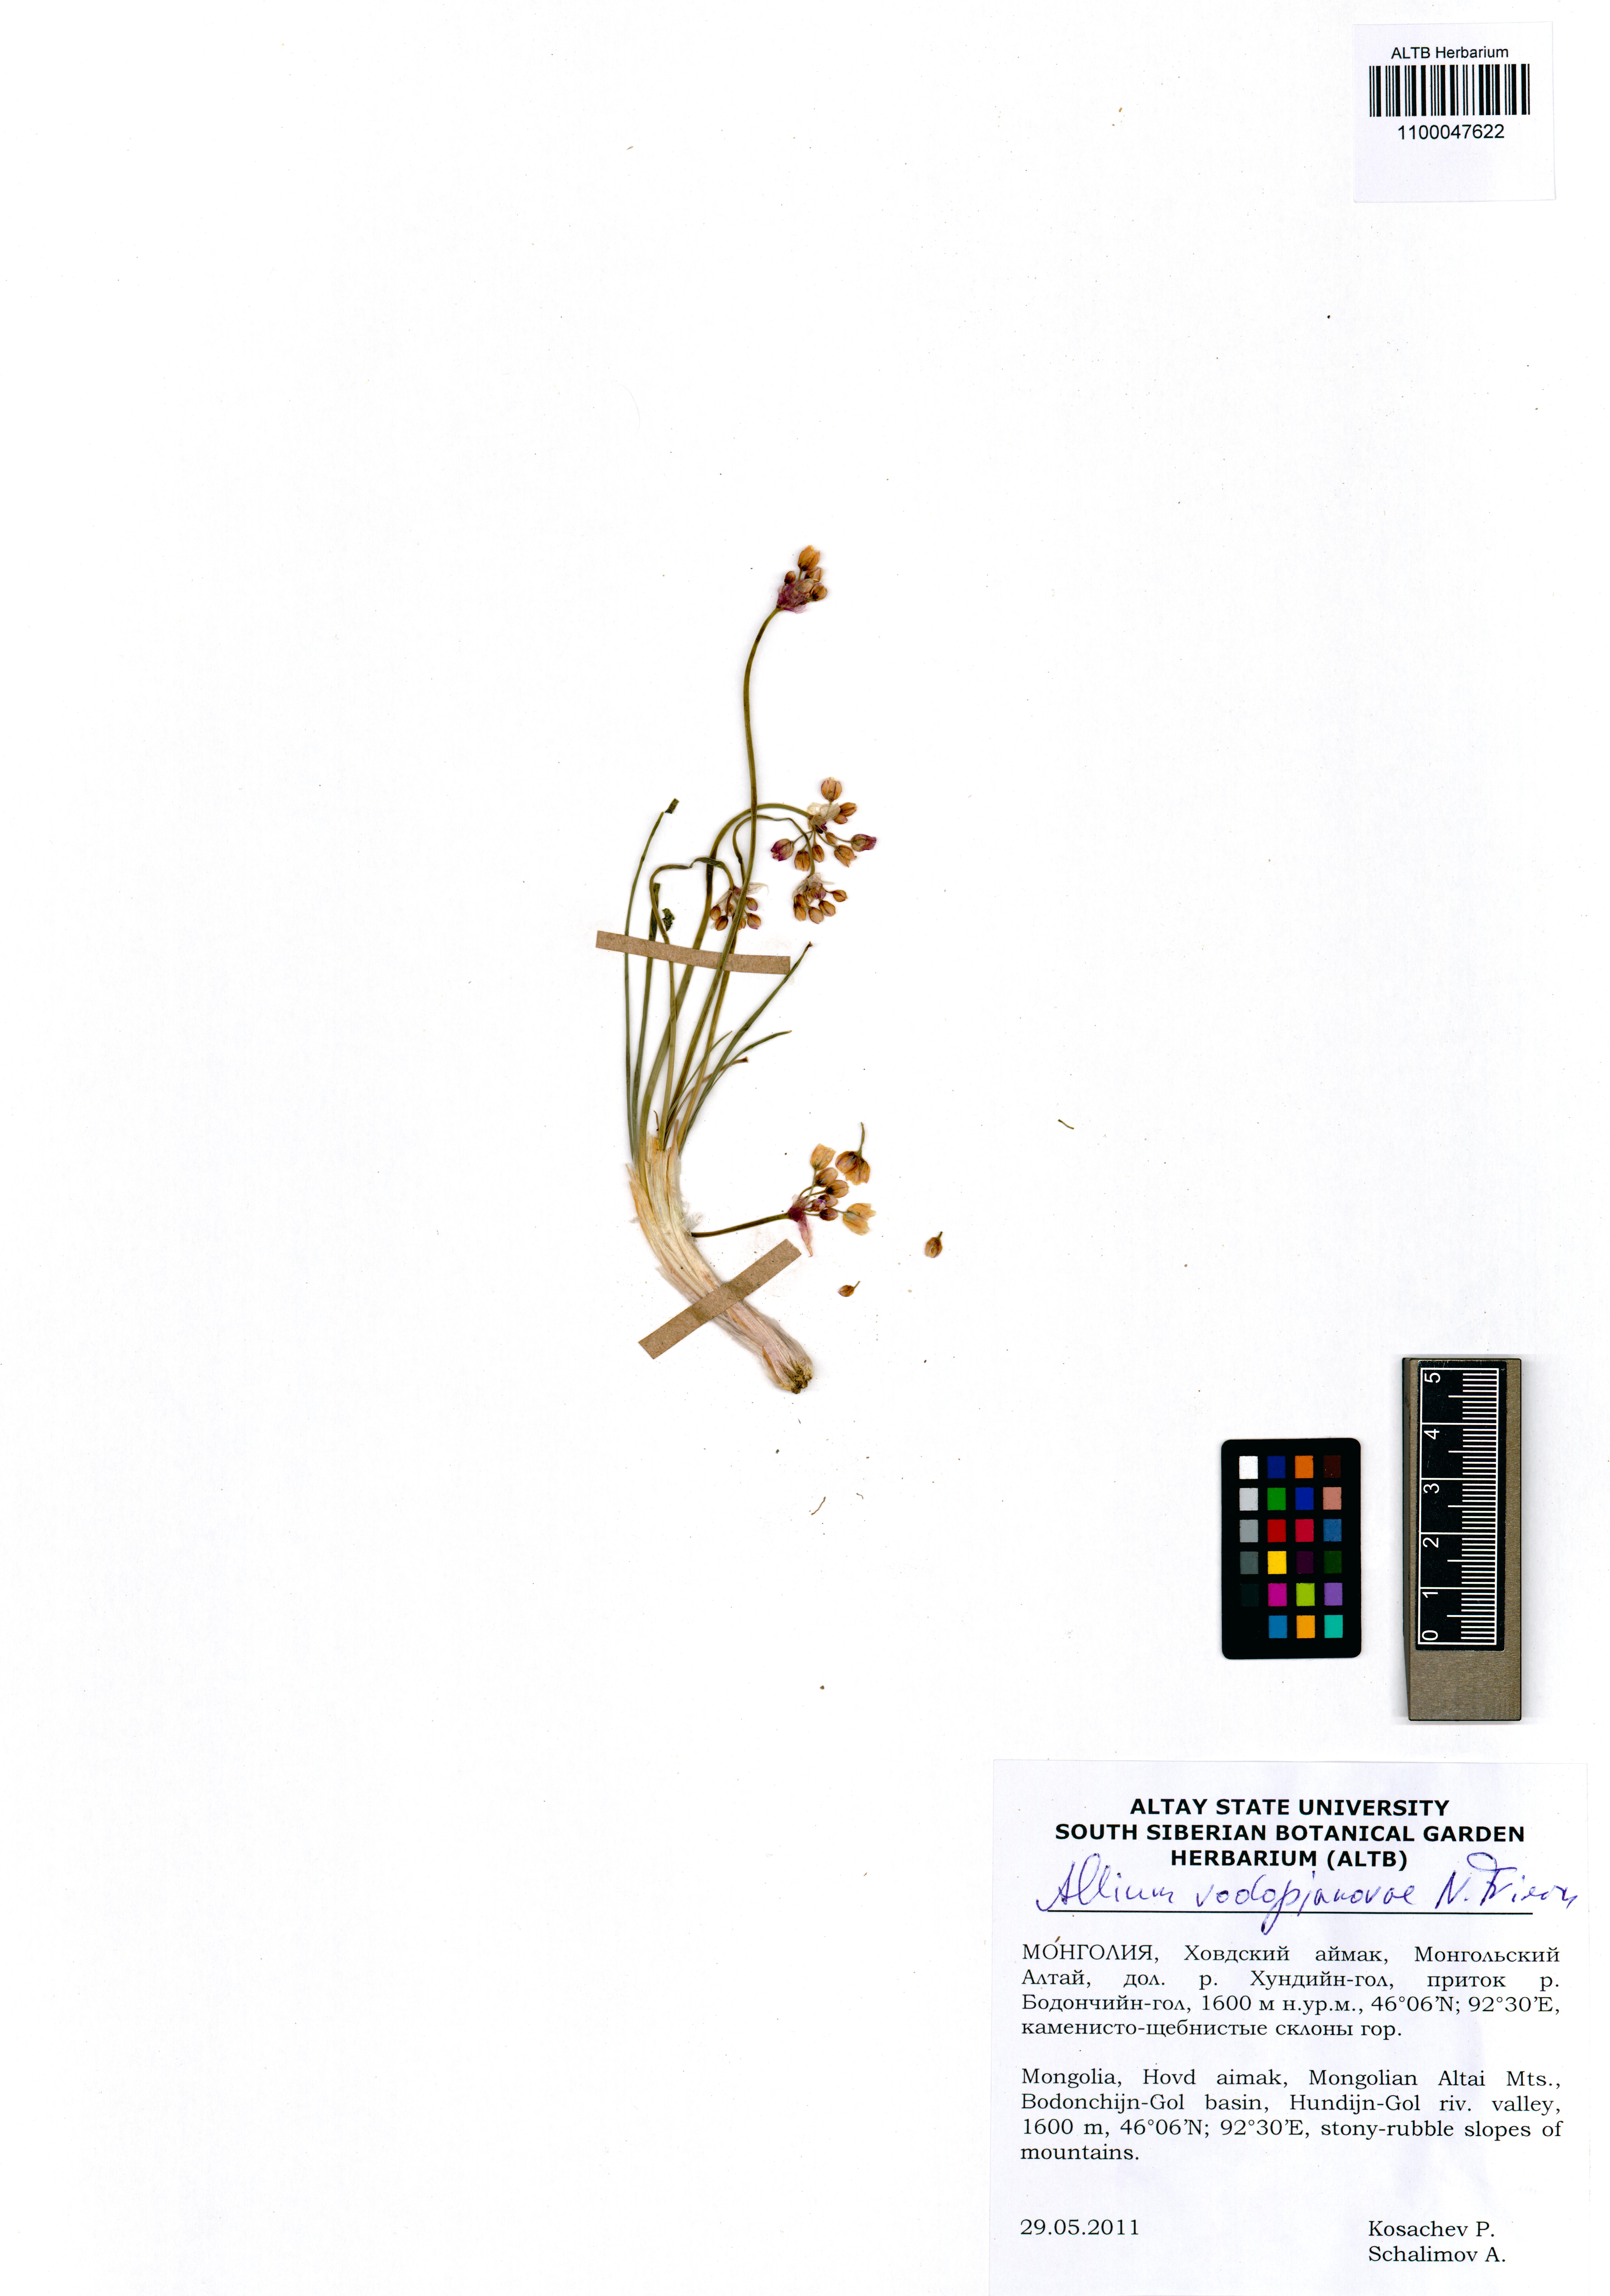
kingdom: Plantae
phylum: Tracheophyta
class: Liliopsida
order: Asparagales
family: Amaryllidaceae
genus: Allium
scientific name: Allium vodopjanovae
